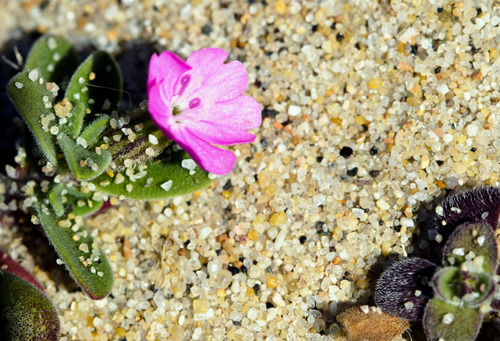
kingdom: Plantae
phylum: Tracheophyta
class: Magnoliopsida
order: Caryophyllales
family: Caryophyllaceae
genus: Silene
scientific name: Silene littorea
